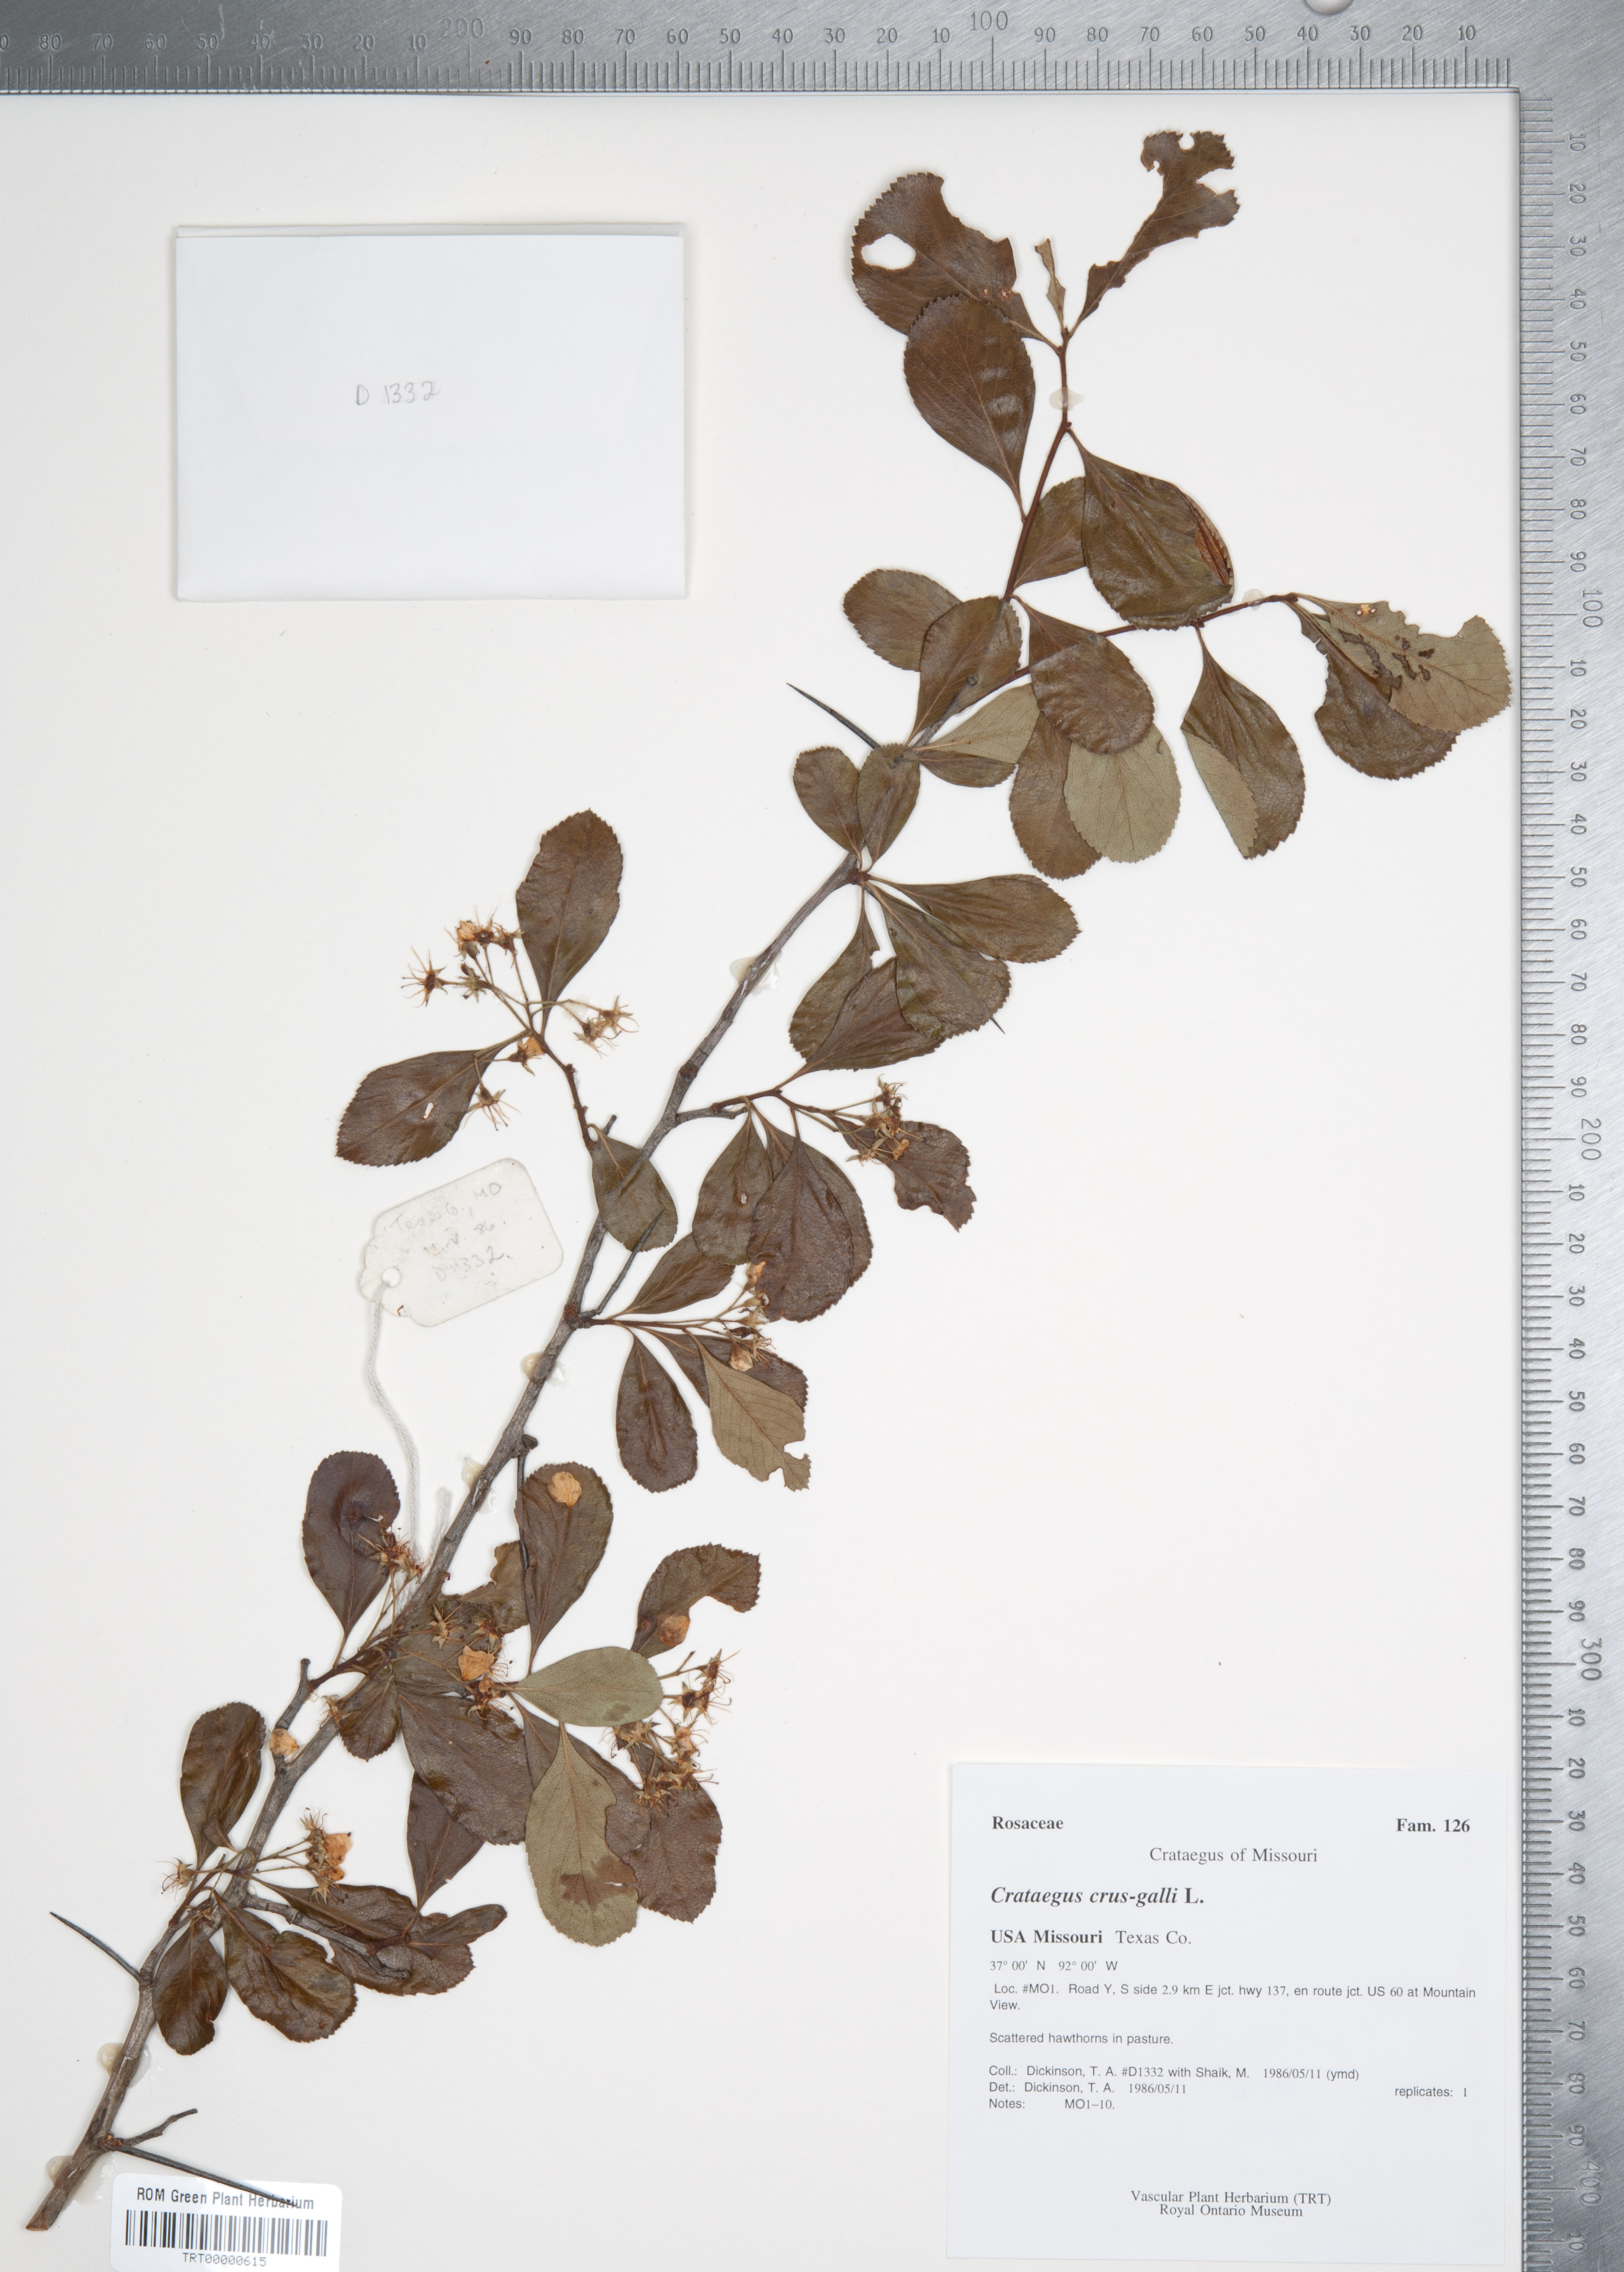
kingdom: Plantae
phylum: Tracheophyta
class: Magnoliopsida
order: Rosales
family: Rosaceae
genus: Crataegus
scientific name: Crataegus crus-galli
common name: Cockspurthorn
